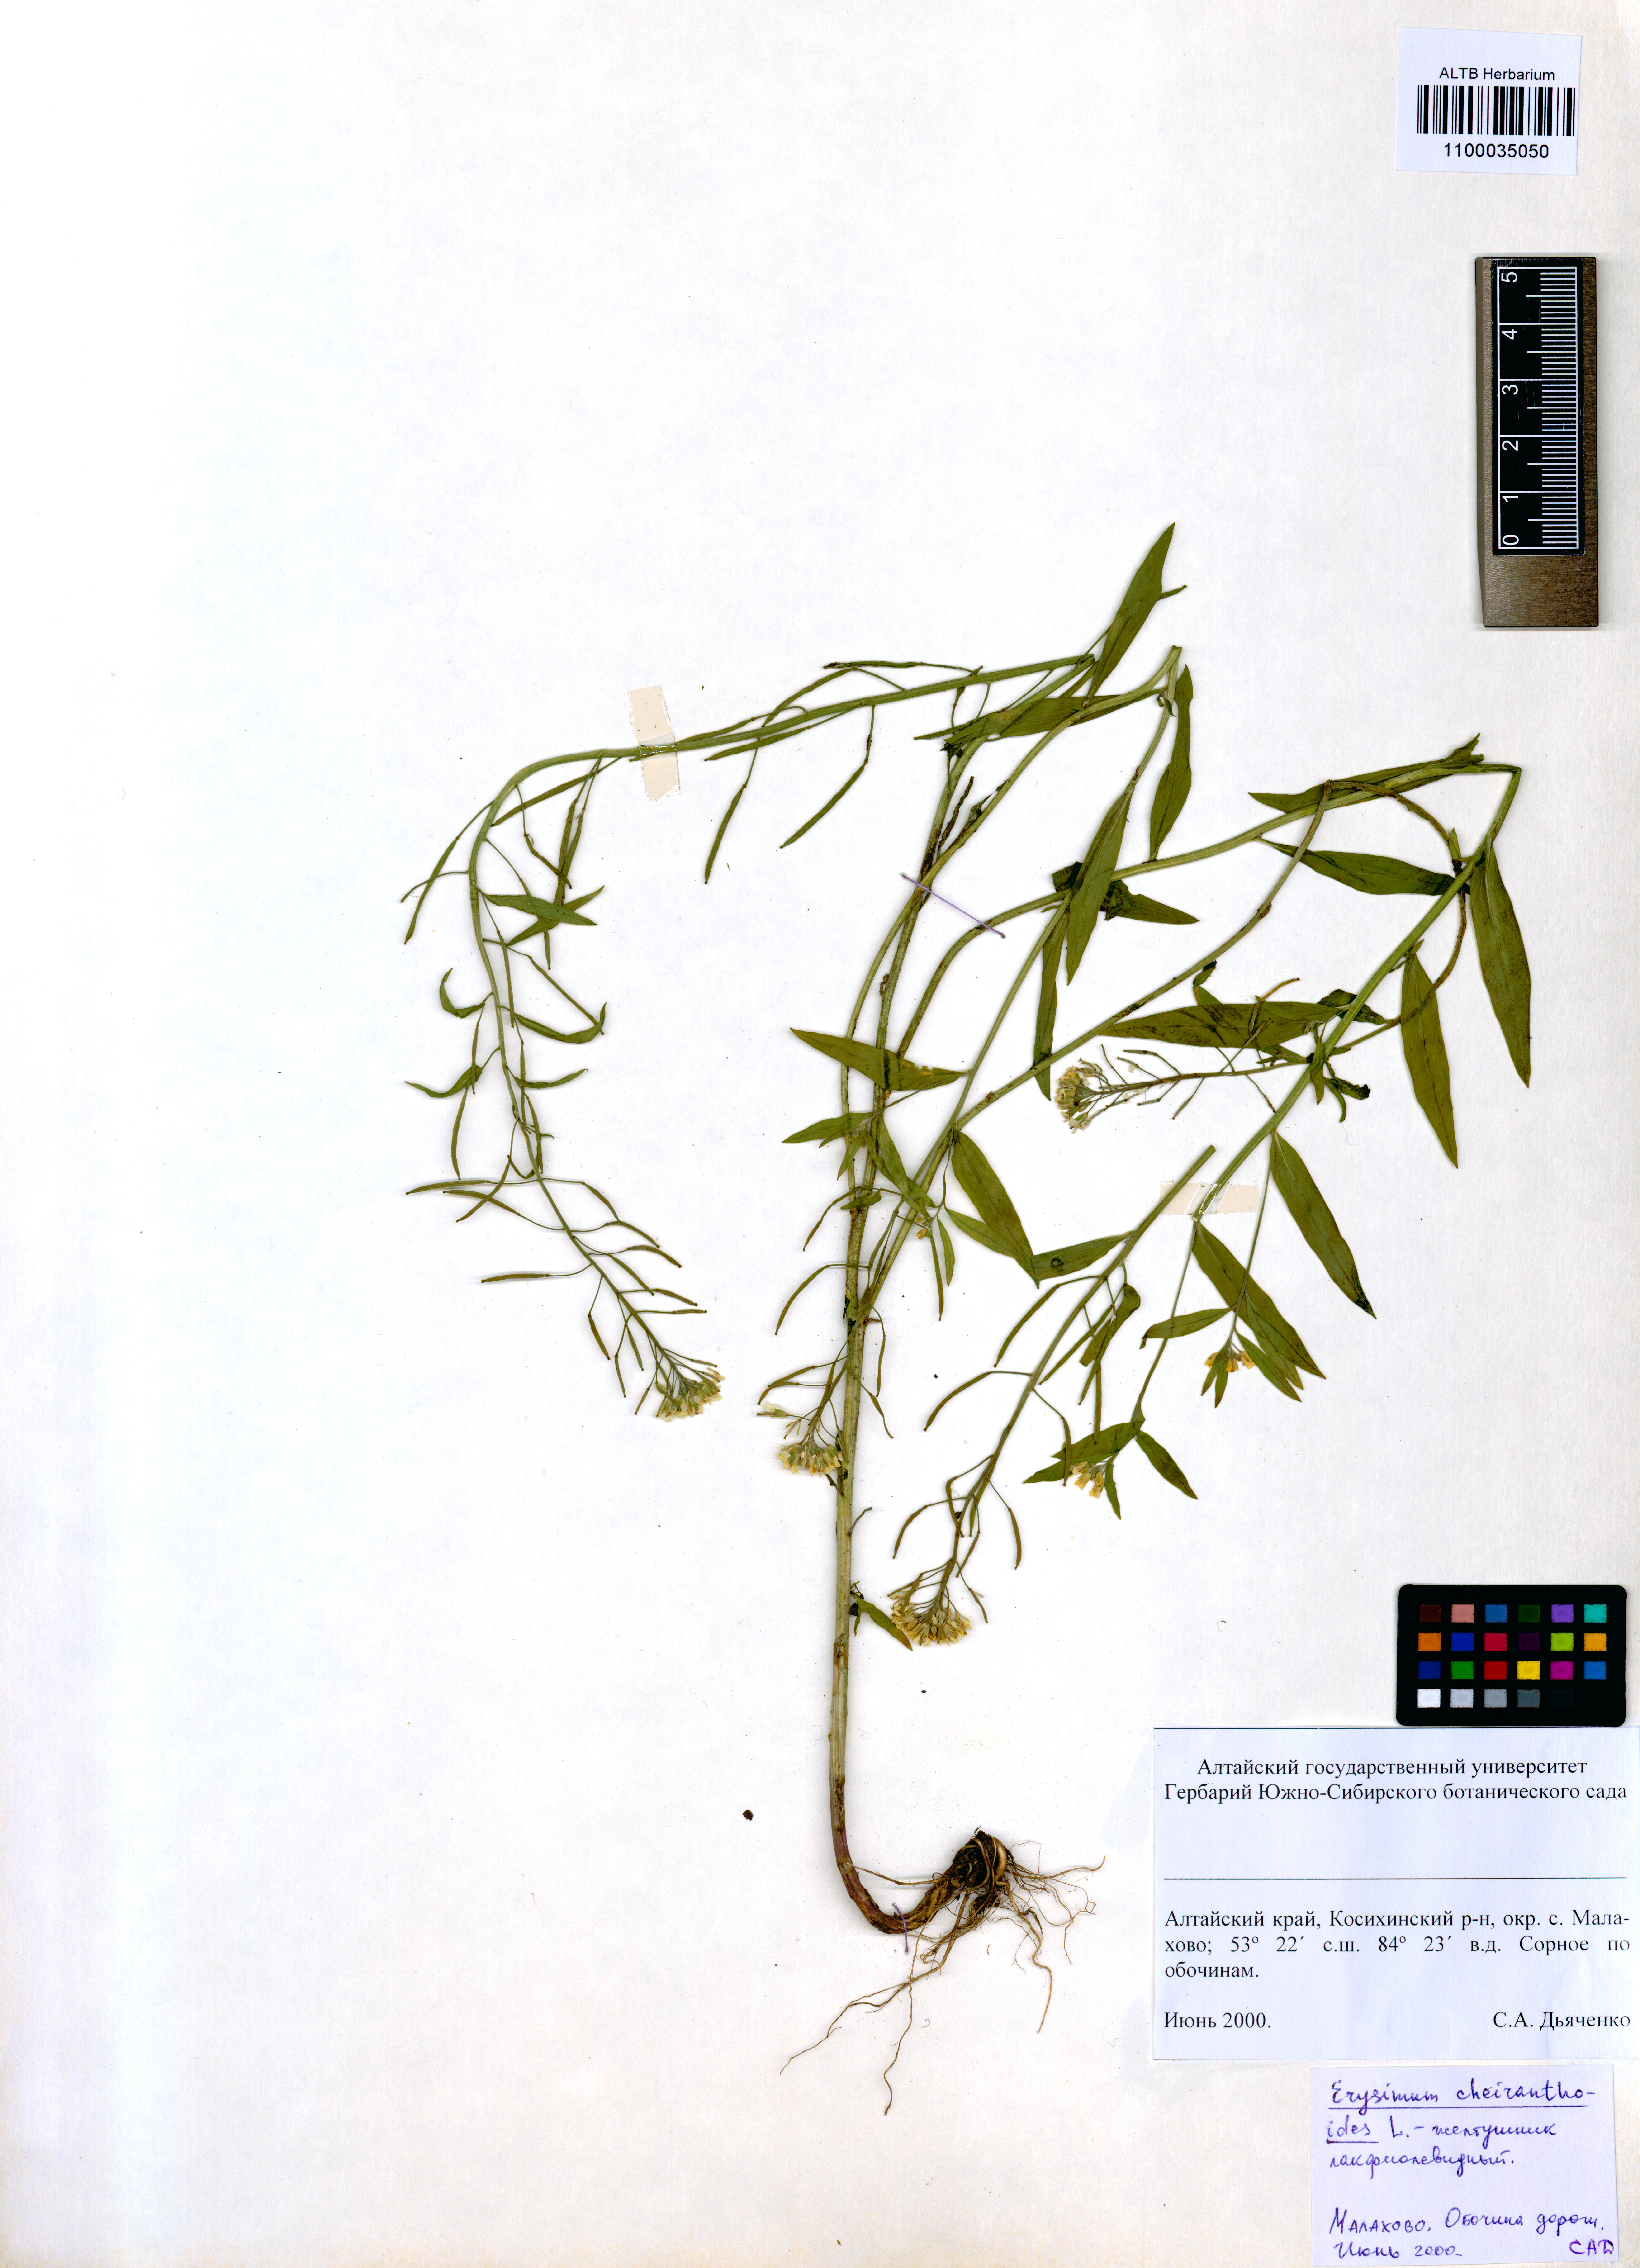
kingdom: Plantae
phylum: Tracheophyta
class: Magnoliopsida
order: Brassicales
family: Brassicaceae
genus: Erysimum
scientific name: Erysimum cheiranthoides
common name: Treacle mustard
